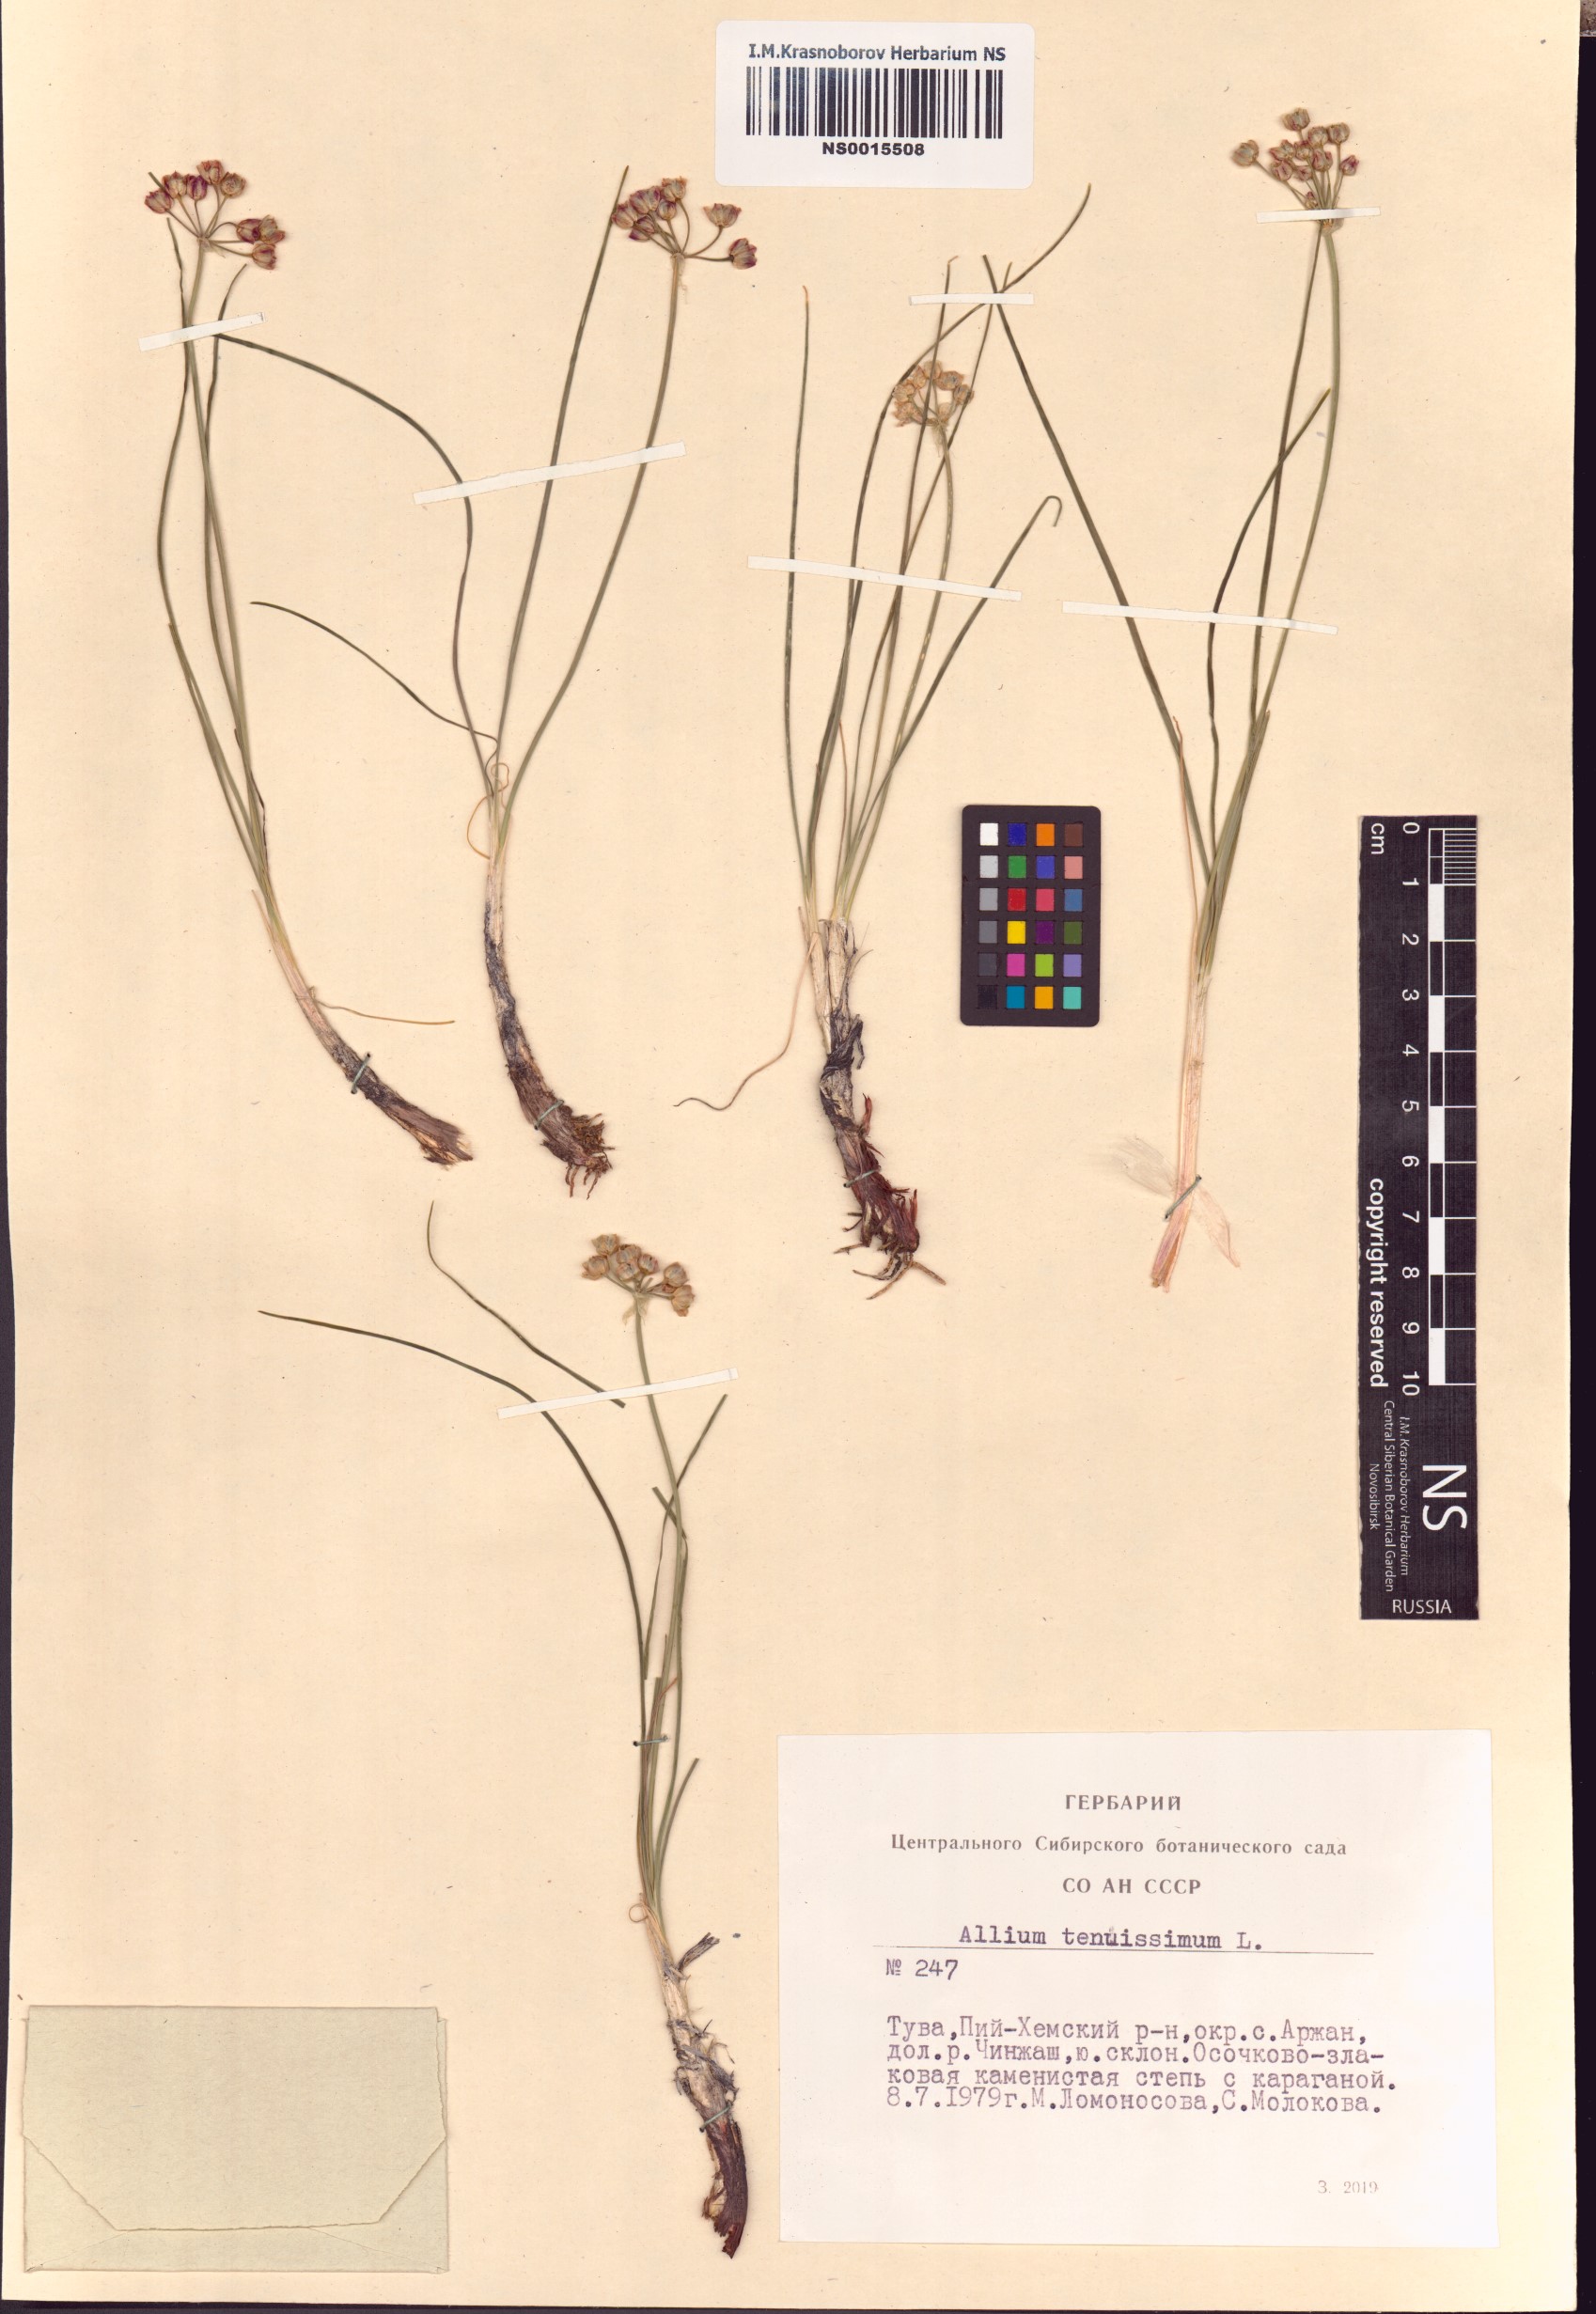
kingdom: Plantae
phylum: Tracheophyta
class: Liliopsida
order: Asparagales
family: Amaryllidaceae
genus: Allium
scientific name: Allium tenuissimum
